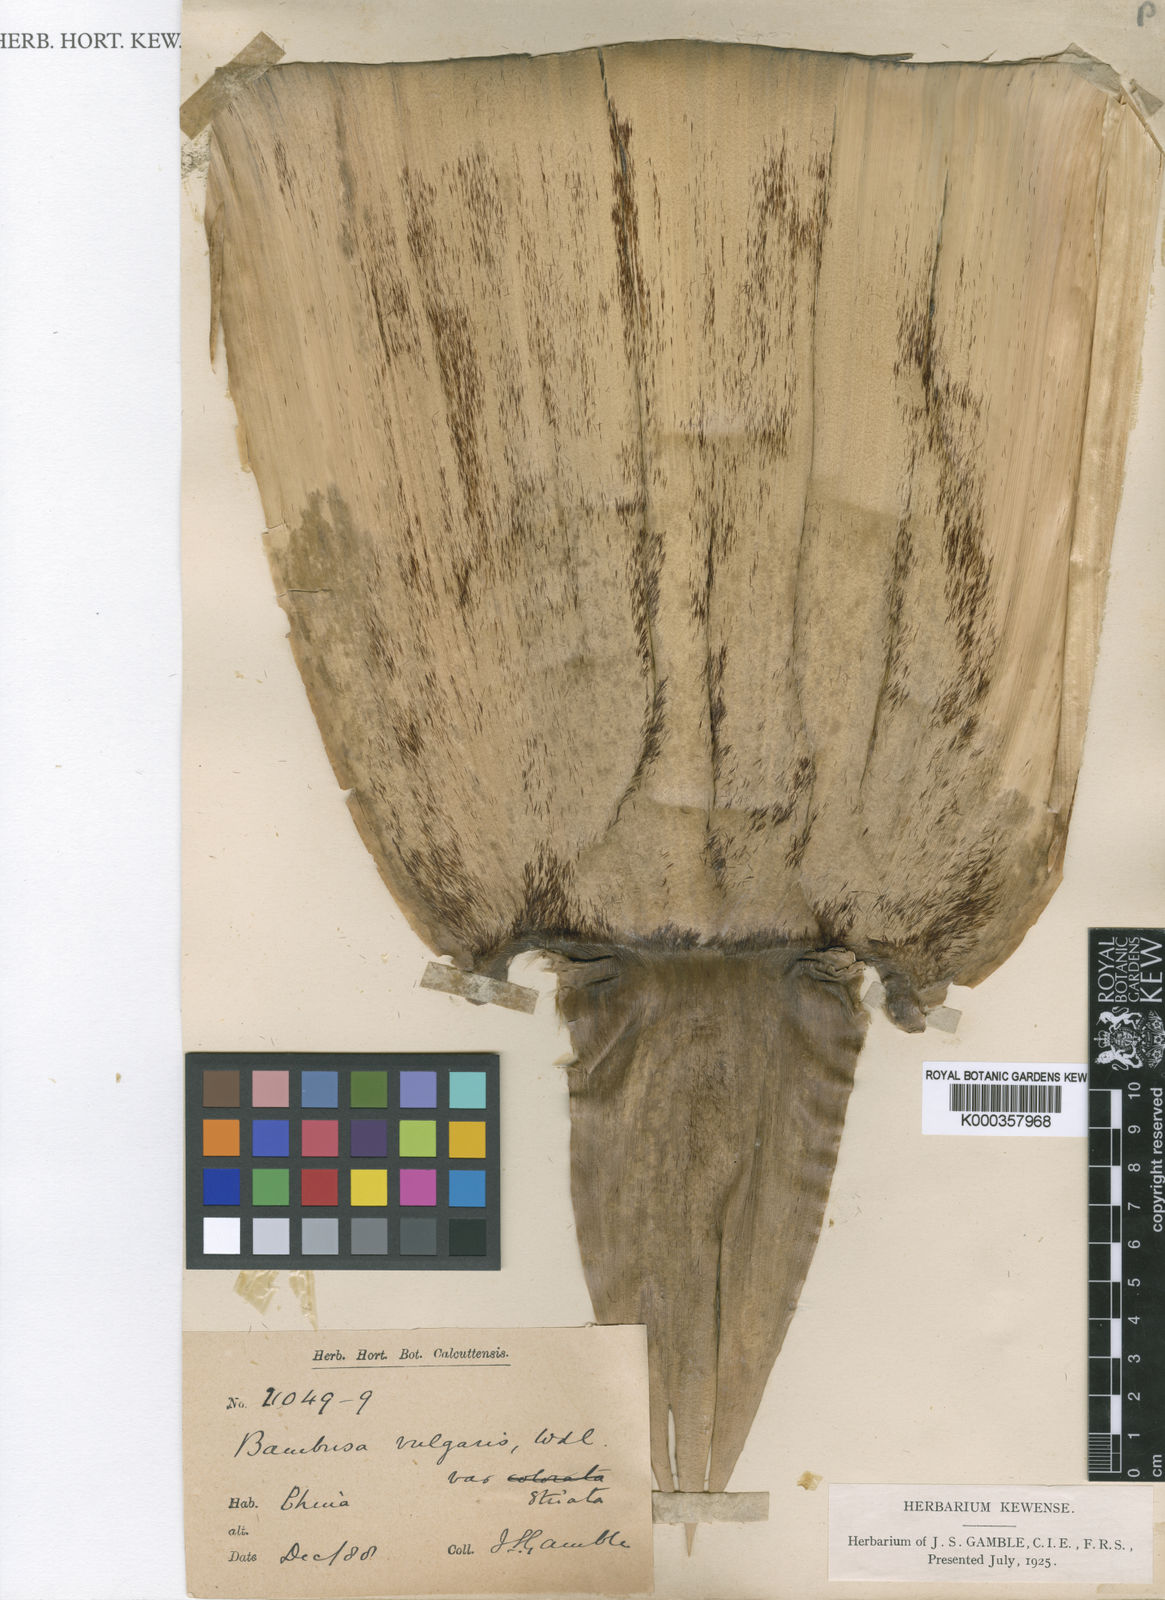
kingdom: Plantae
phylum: Tracheophyta
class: Liliopsida
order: Poales
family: Poaceae
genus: Bambusa
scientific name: Bambusa
